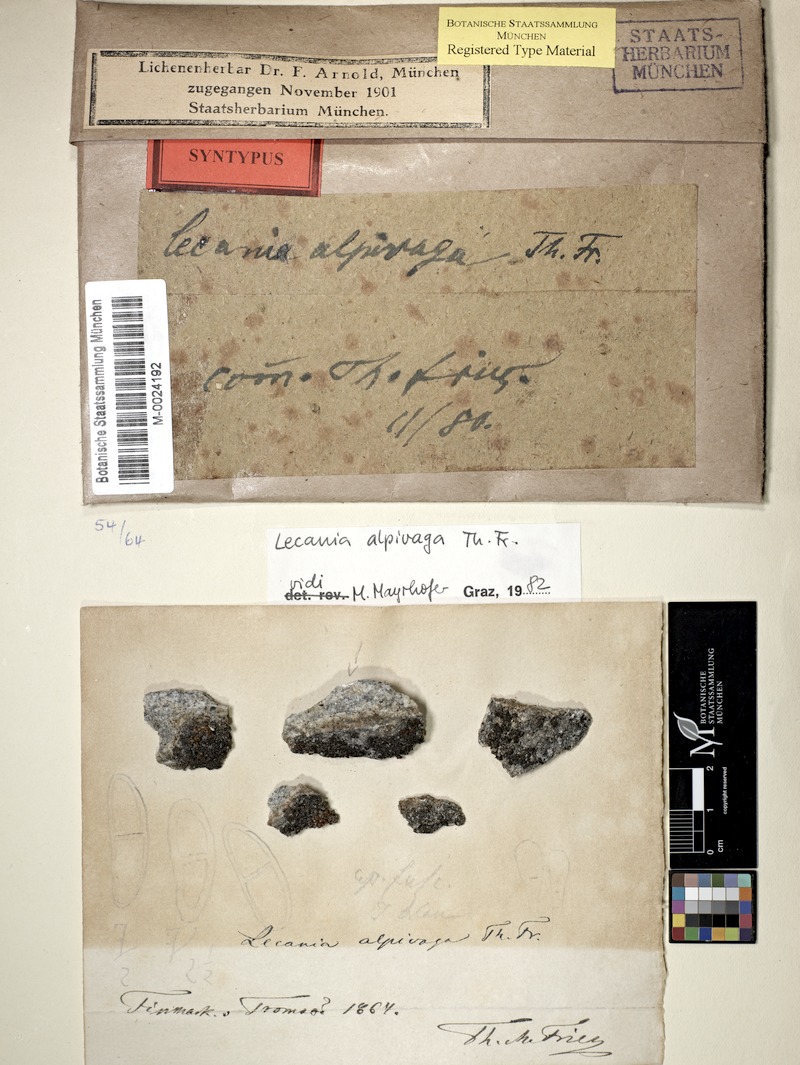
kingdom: Fungi
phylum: Ascomycota
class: Lecanoromycetes
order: Teloschistales
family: Leprocaulaceae
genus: Halecania
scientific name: Halecania alpivaga
